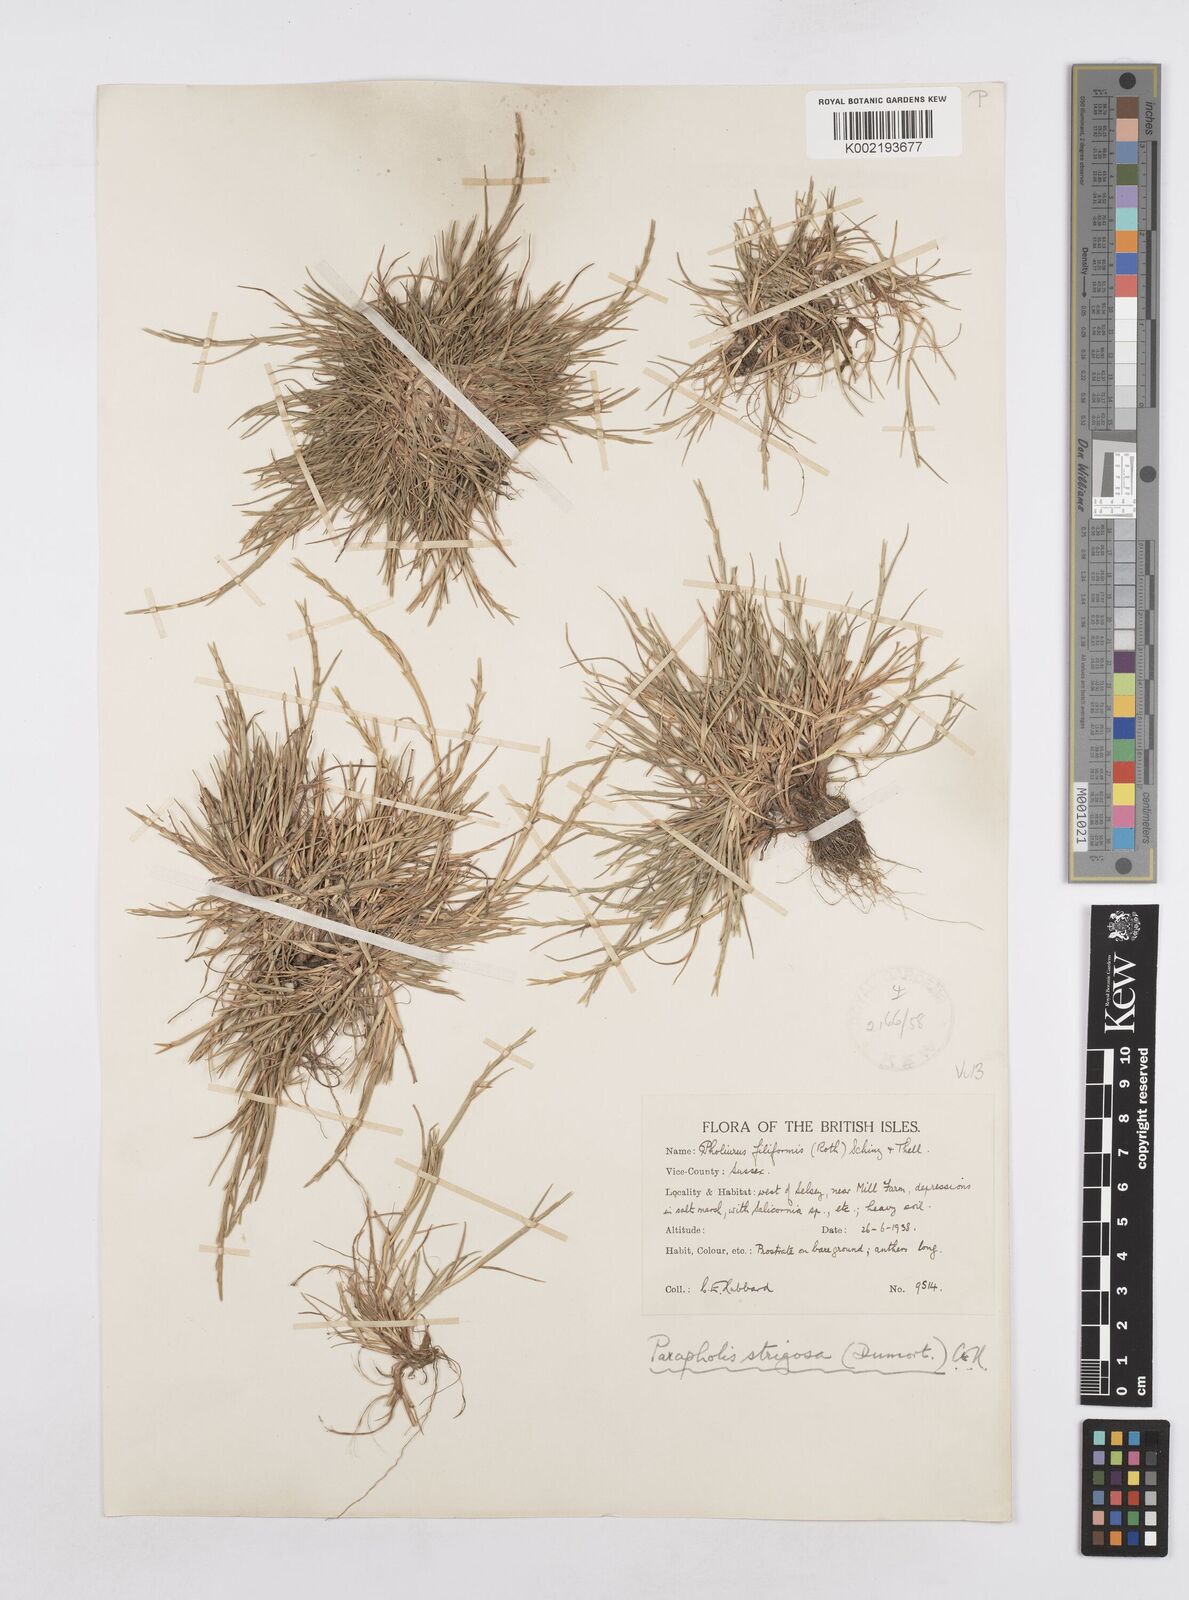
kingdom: Plantae
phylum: Tracheophyta
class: Liliopsida
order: Poales
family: Poaceae
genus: Parapholis
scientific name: Parapholis strigosa
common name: Hard-grass
